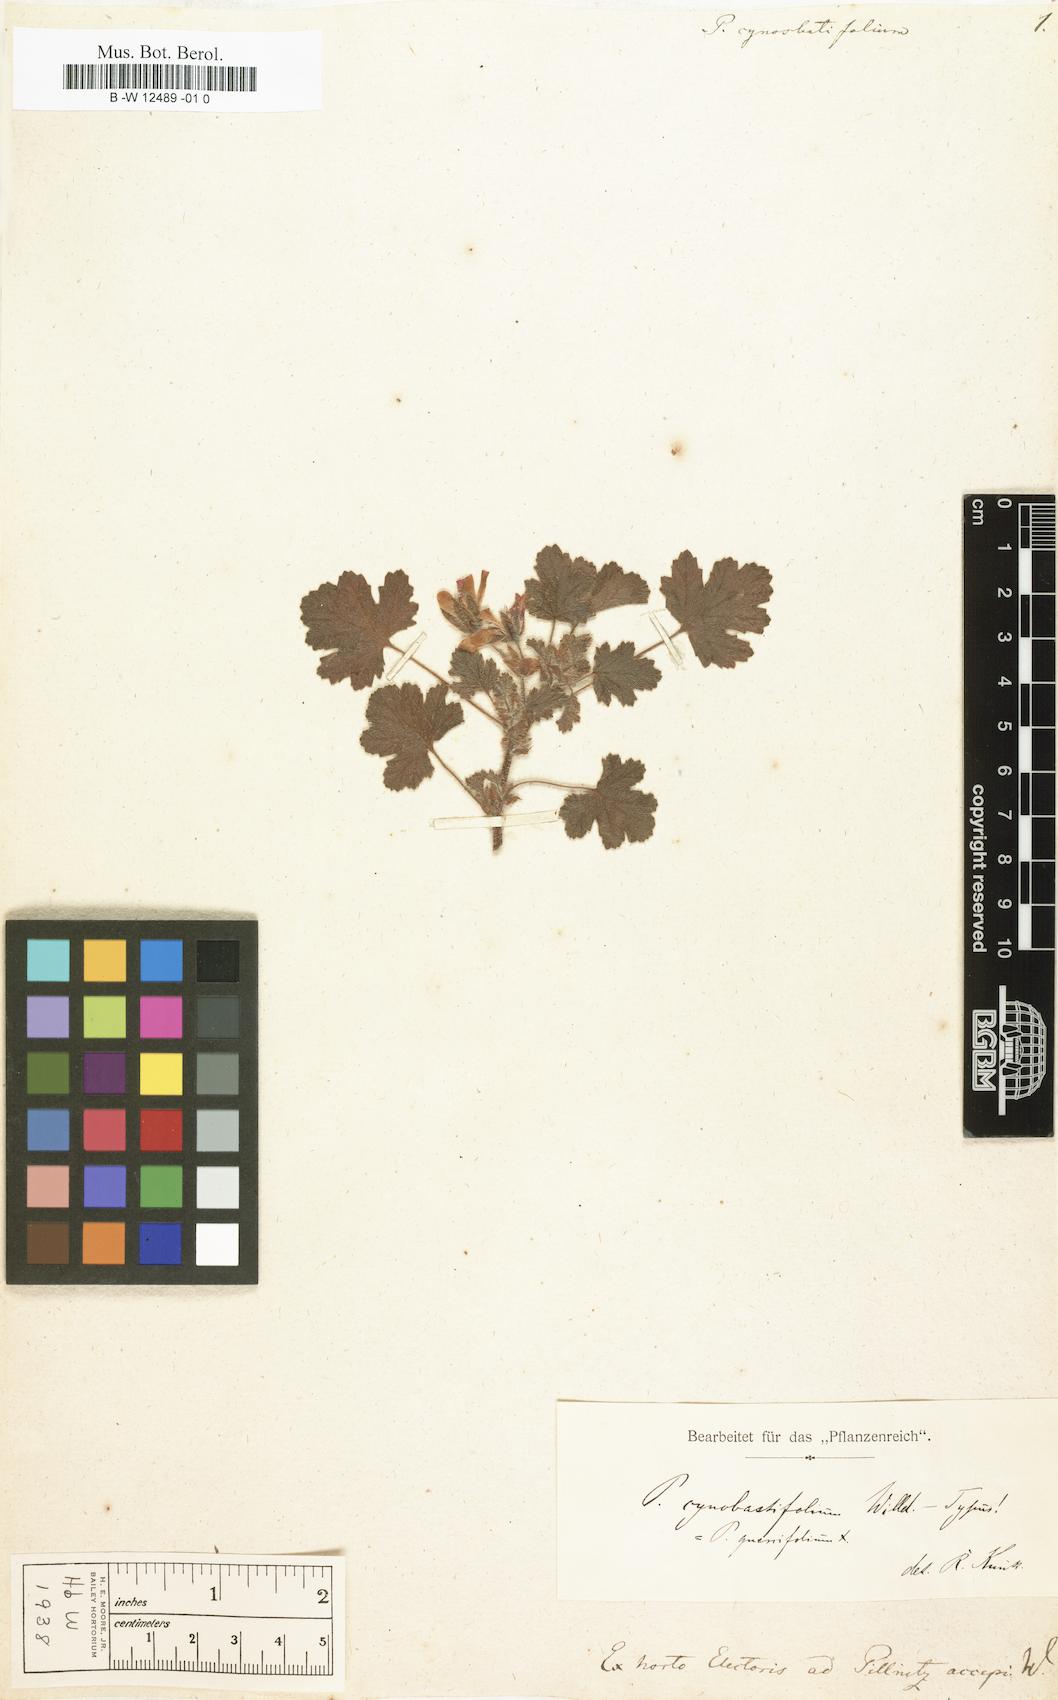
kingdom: Plantae
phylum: Tracheophyta
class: Magnoliopsida
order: Geraniales
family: Geraniaceae
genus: Pelargonium
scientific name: Pelargonium alchemilloides
